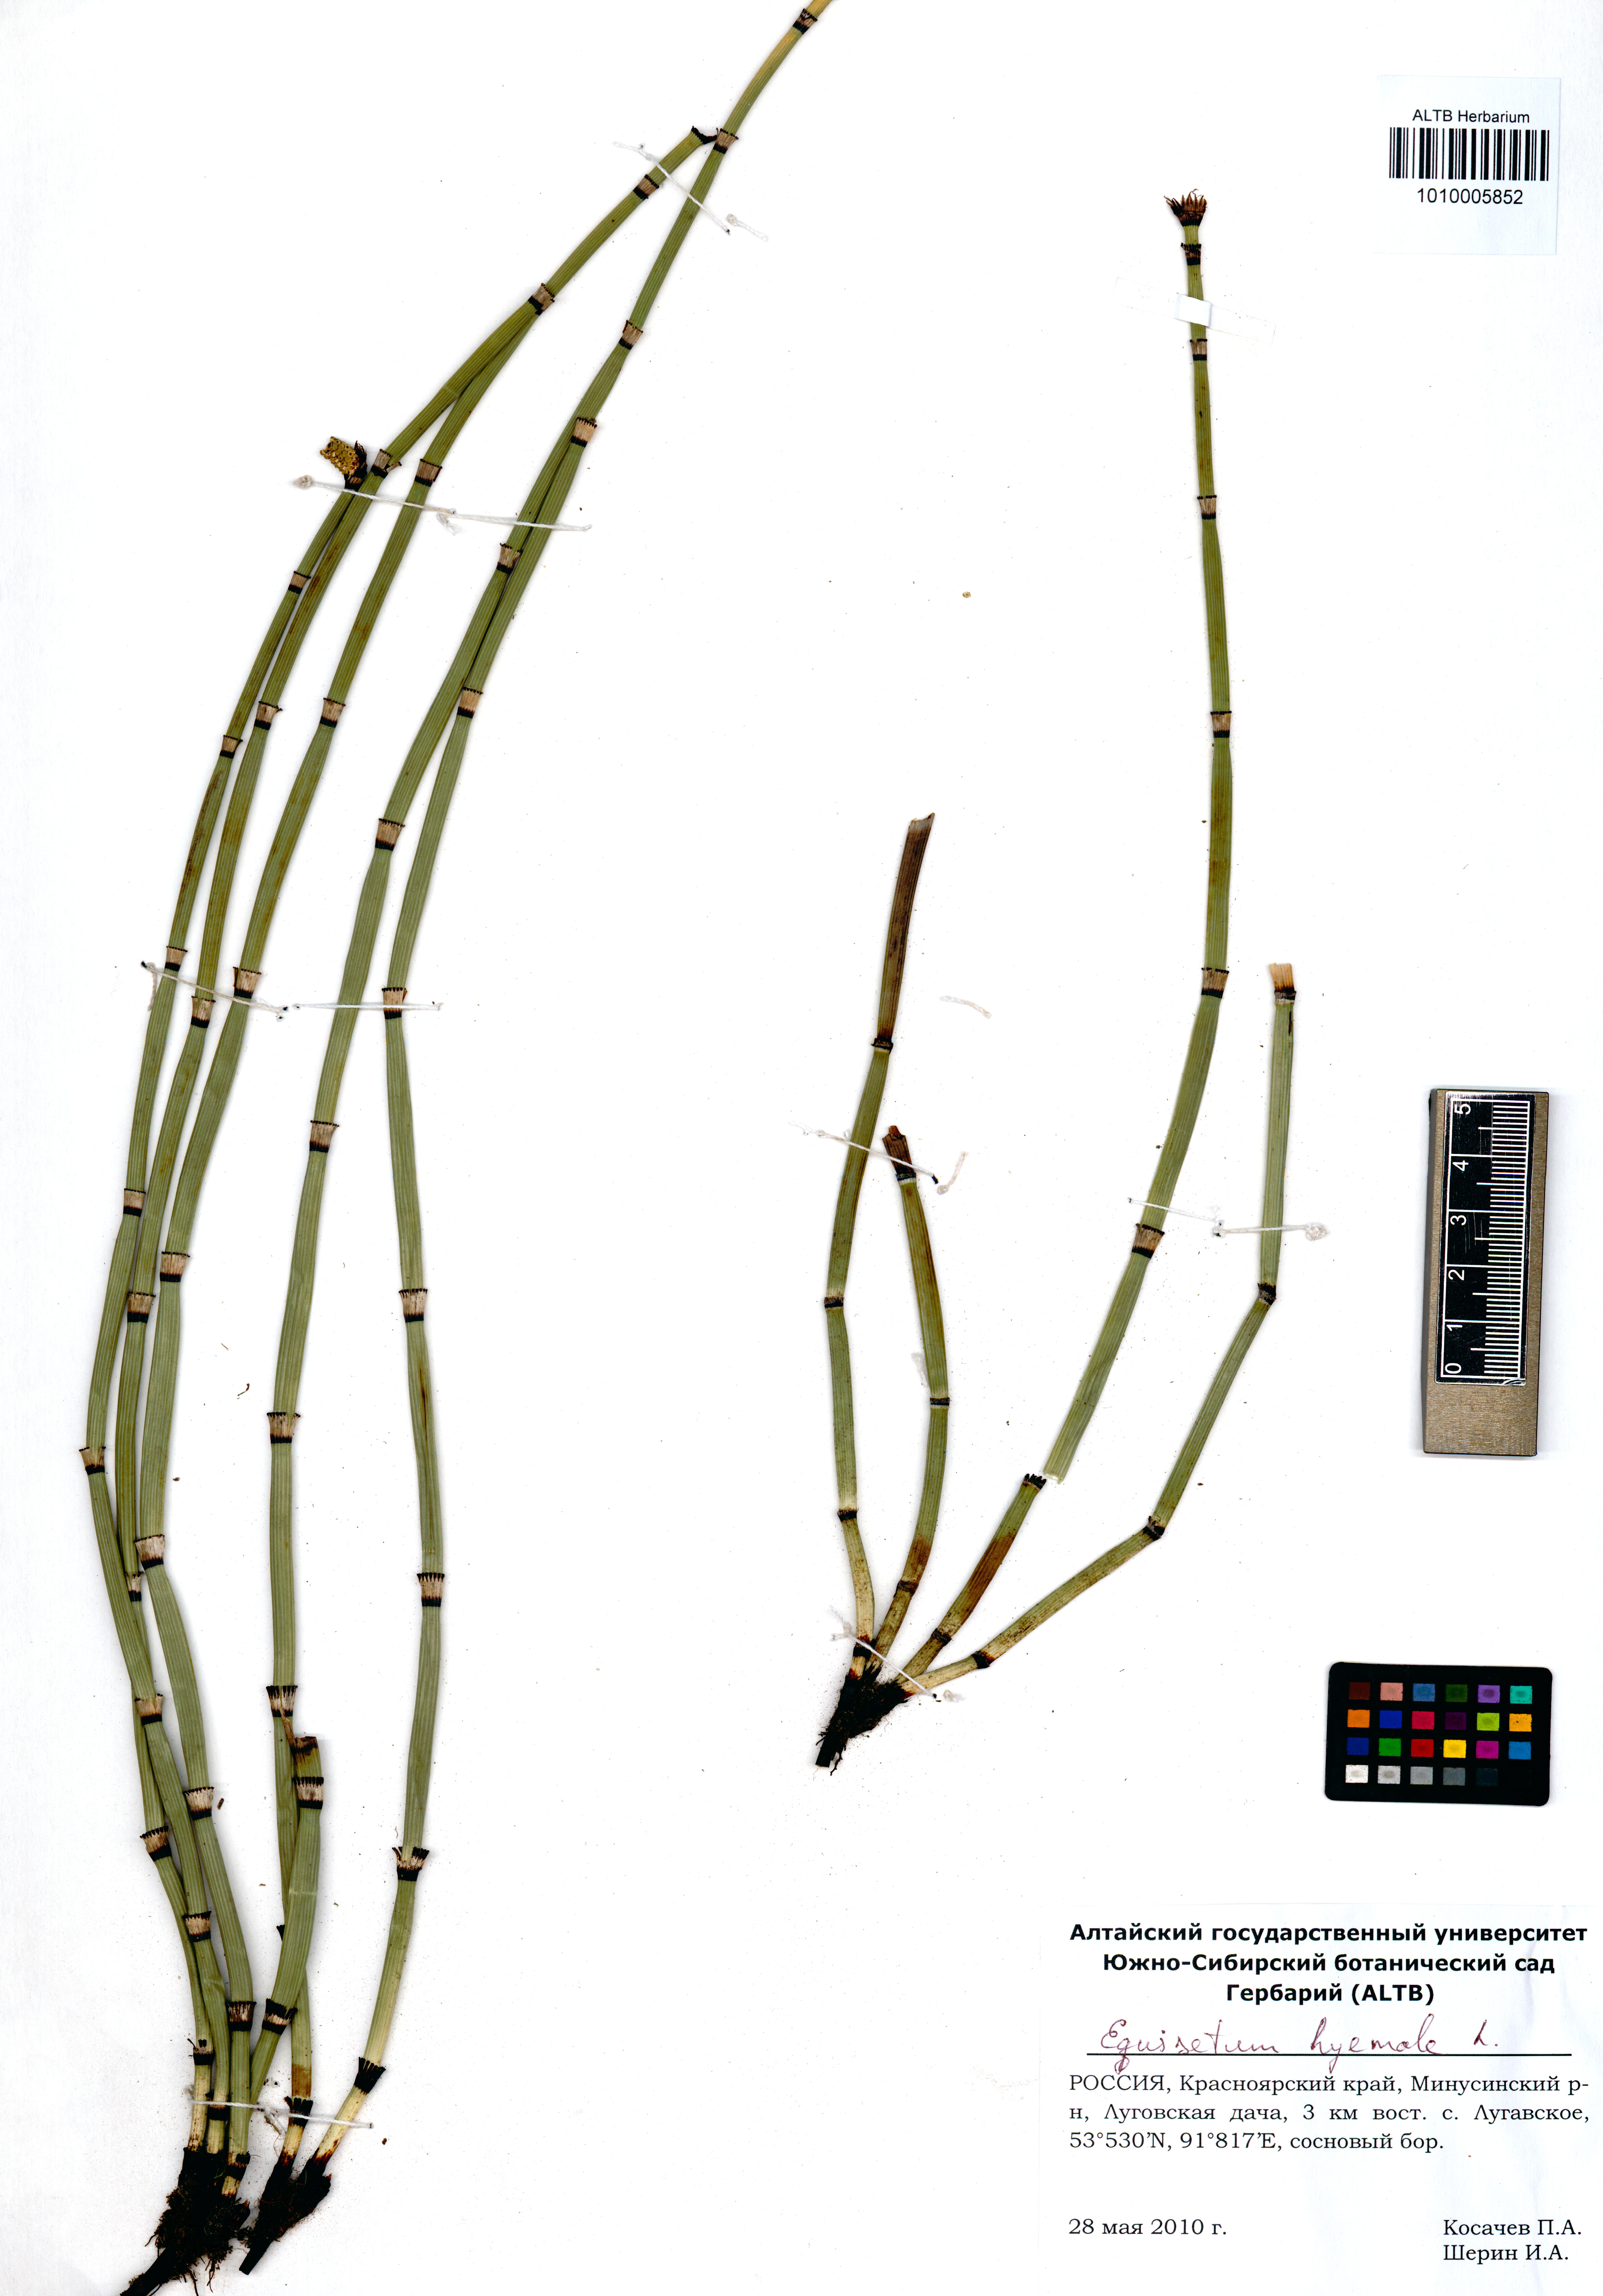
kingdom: Plantae
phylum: Tracheophyta
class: Polypodiopsida
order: Equisetales
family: Equisetaceae
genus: Equisetum
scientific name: Equisetum hyemale
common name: Rough horsetail
